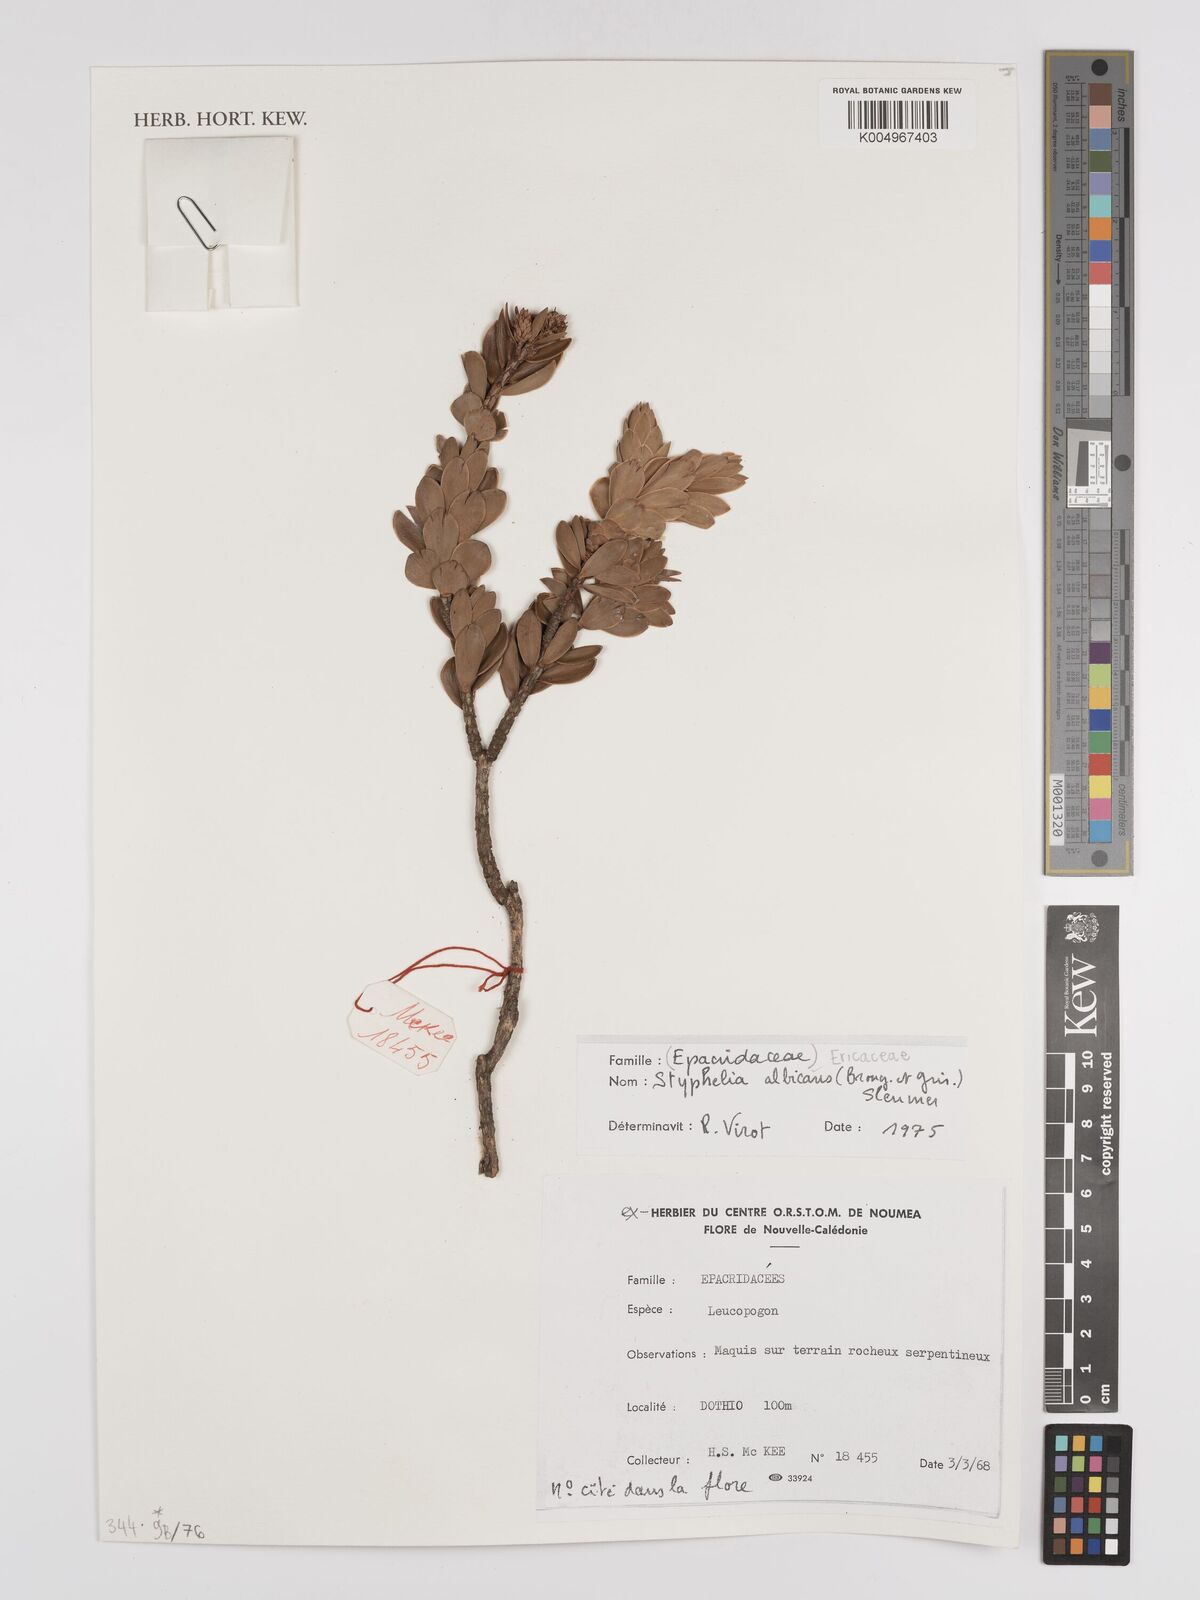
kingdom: Plantae
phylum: Tracheophyta
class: Magnoliopsida
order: Ericales
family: Ericaceae
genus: Cyathopsis
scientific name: Cyathopsis albicans
